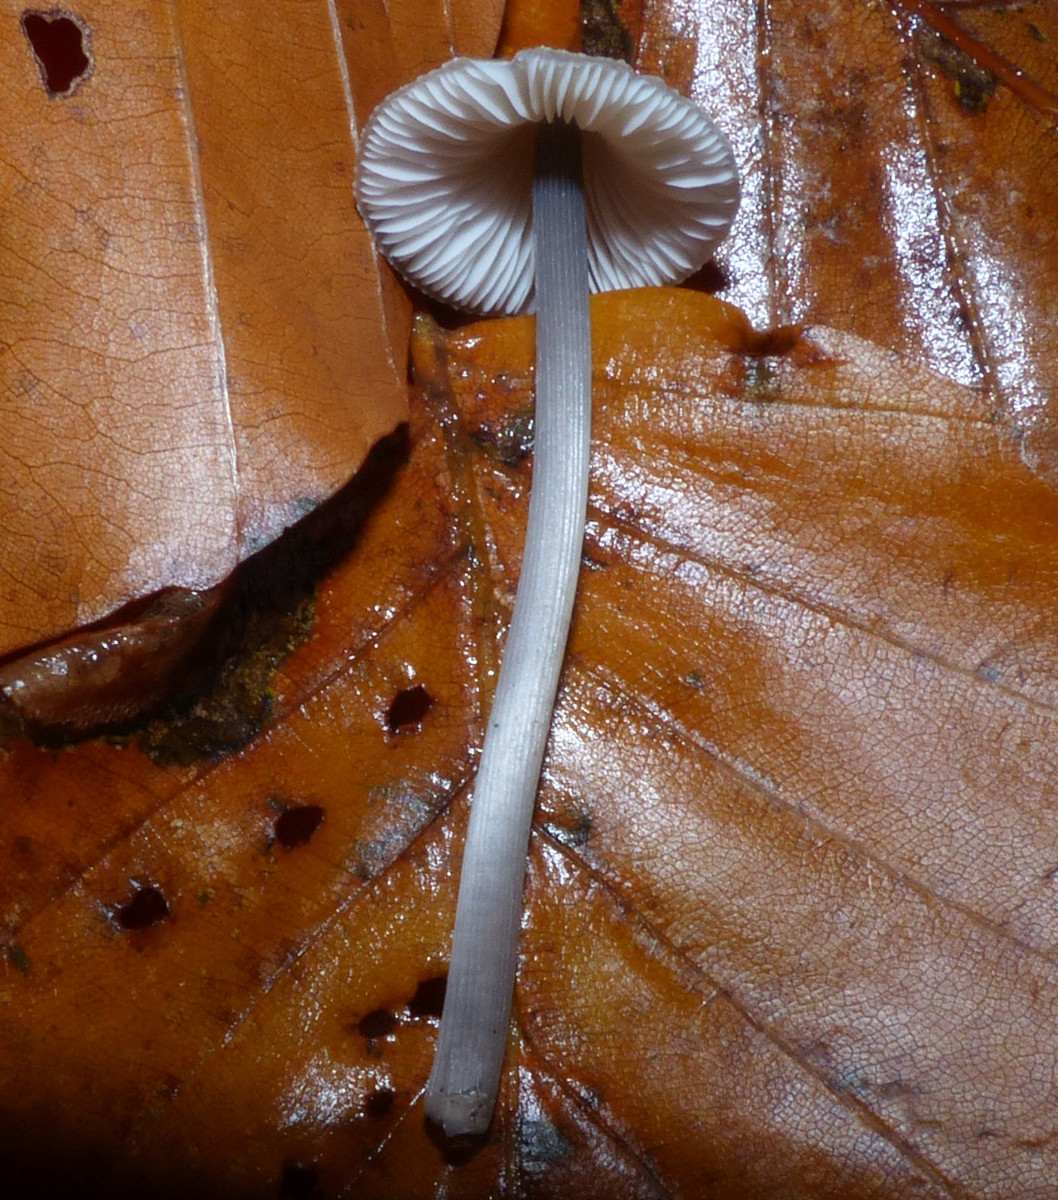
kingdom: Fungi
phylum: Basidiomycota
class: Agaricomycetes
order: Agaricales
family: Mycenaceae
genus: Mycena
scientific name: Mycena polygramma
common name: mangestribet huesvamp
